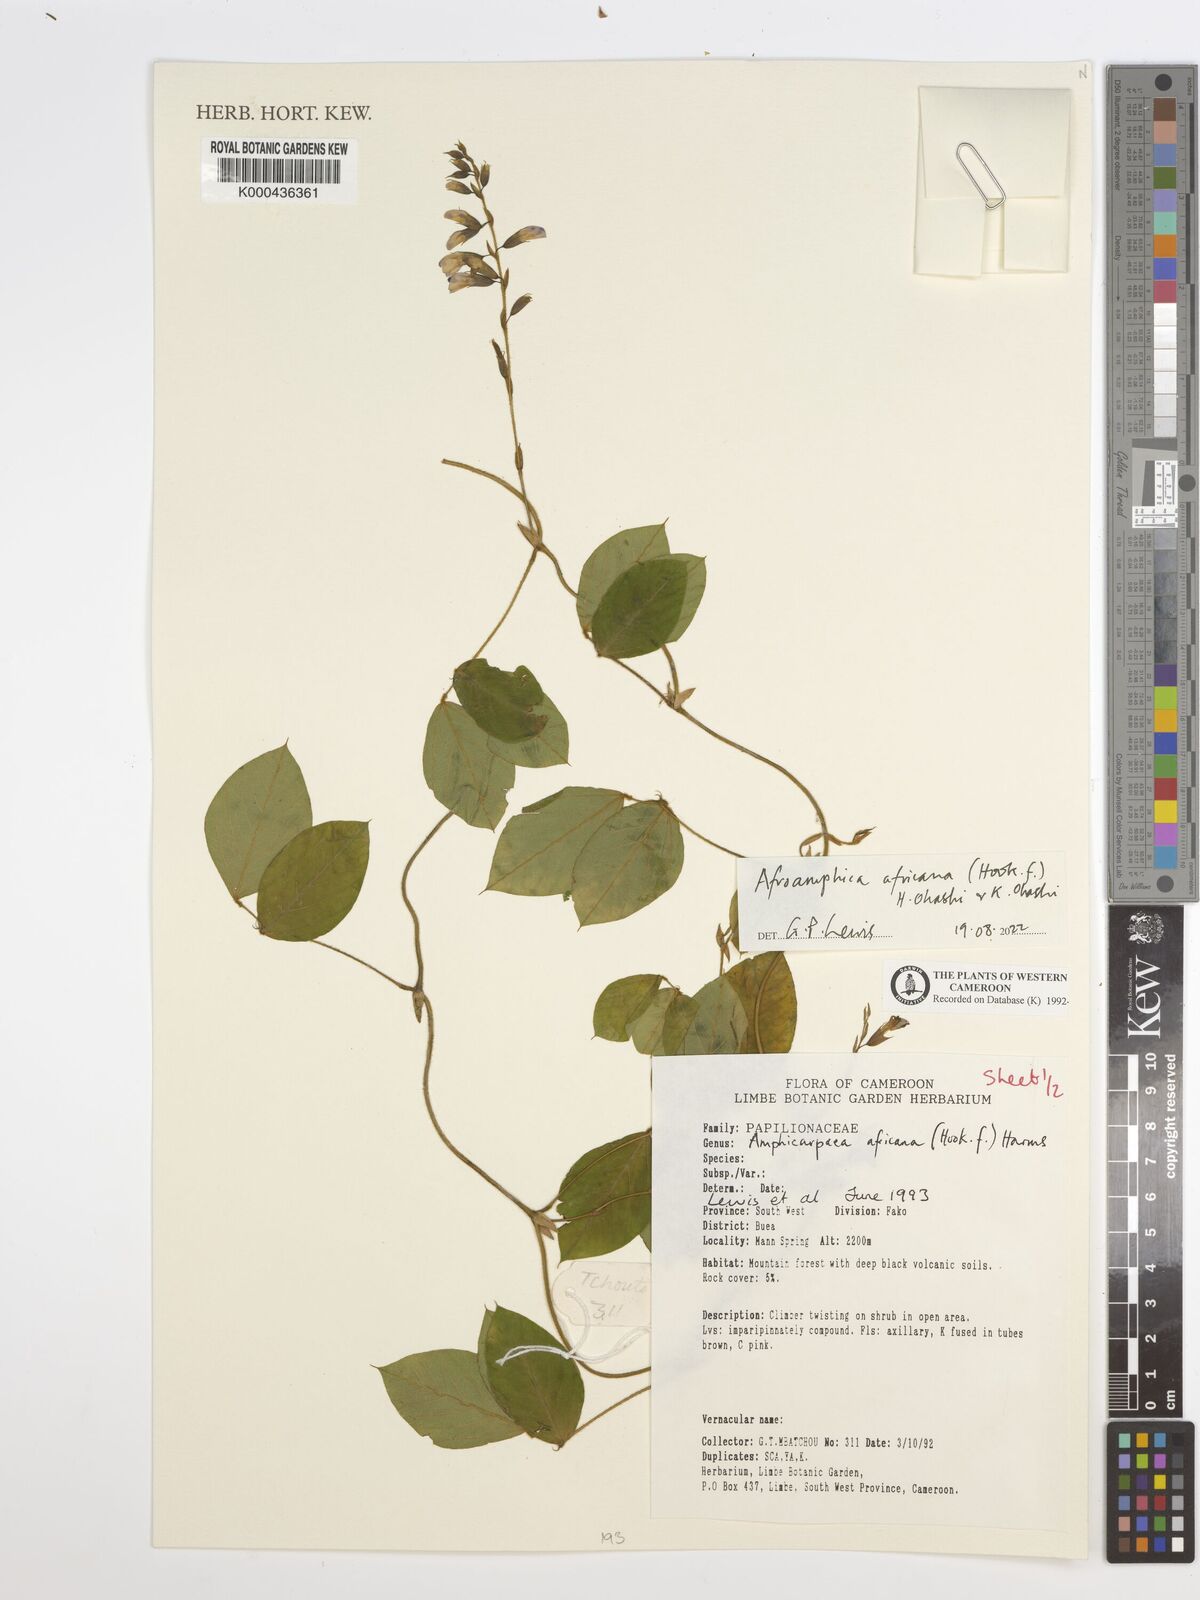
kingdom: Plantae
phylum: Tracheophyta
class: Magnoliopsida
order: Fabales
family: Fabaceae
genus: Afroamphica
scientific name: Afroamphica africana
